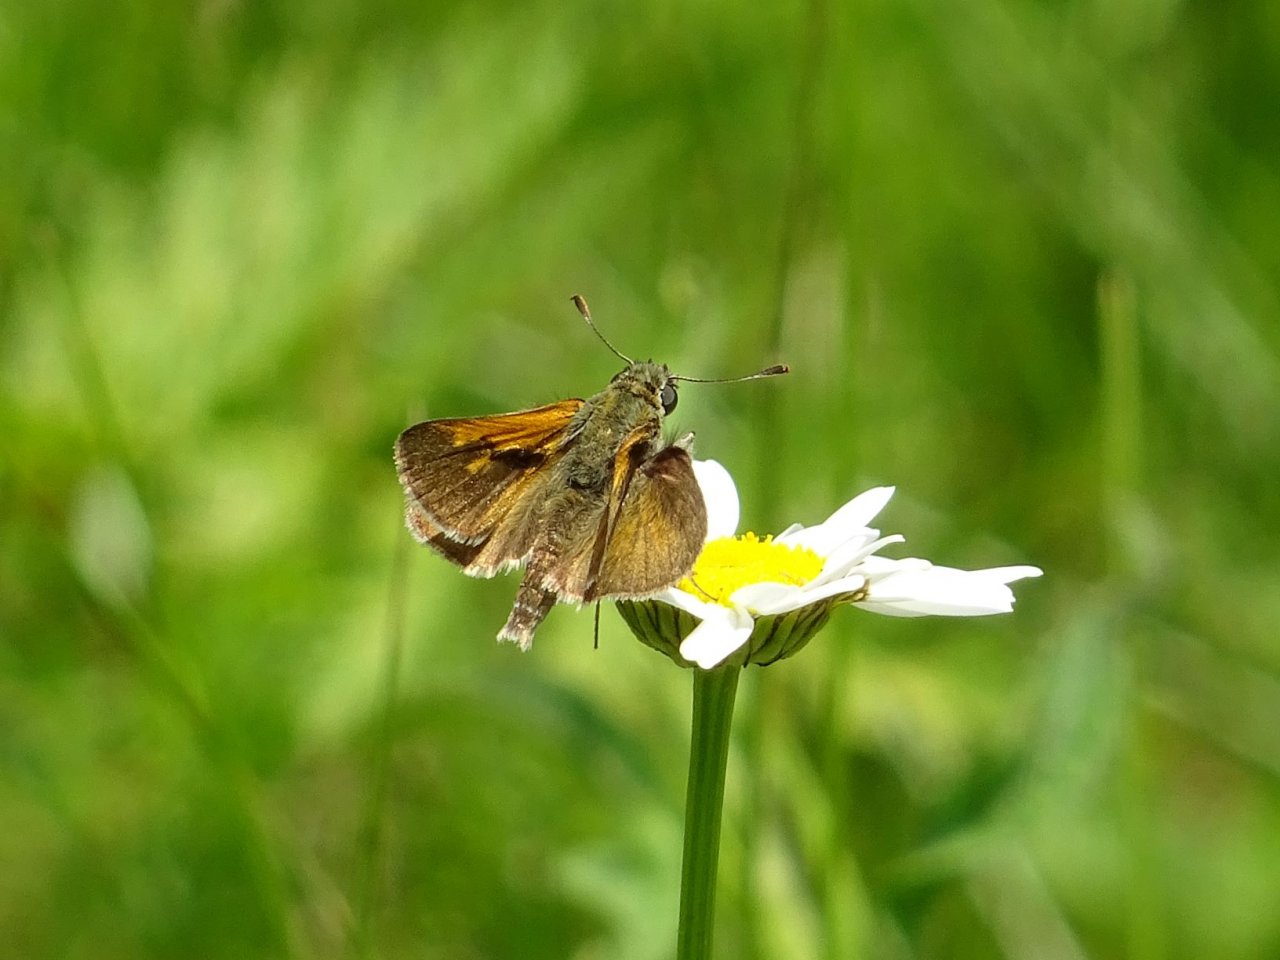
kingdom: Animalia
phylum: Arthropoda
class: Insecta
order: Lepidoptera
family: Hesperiidae
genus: Polites
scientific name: Polites themistocles
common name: Tawny-edged Skipper
